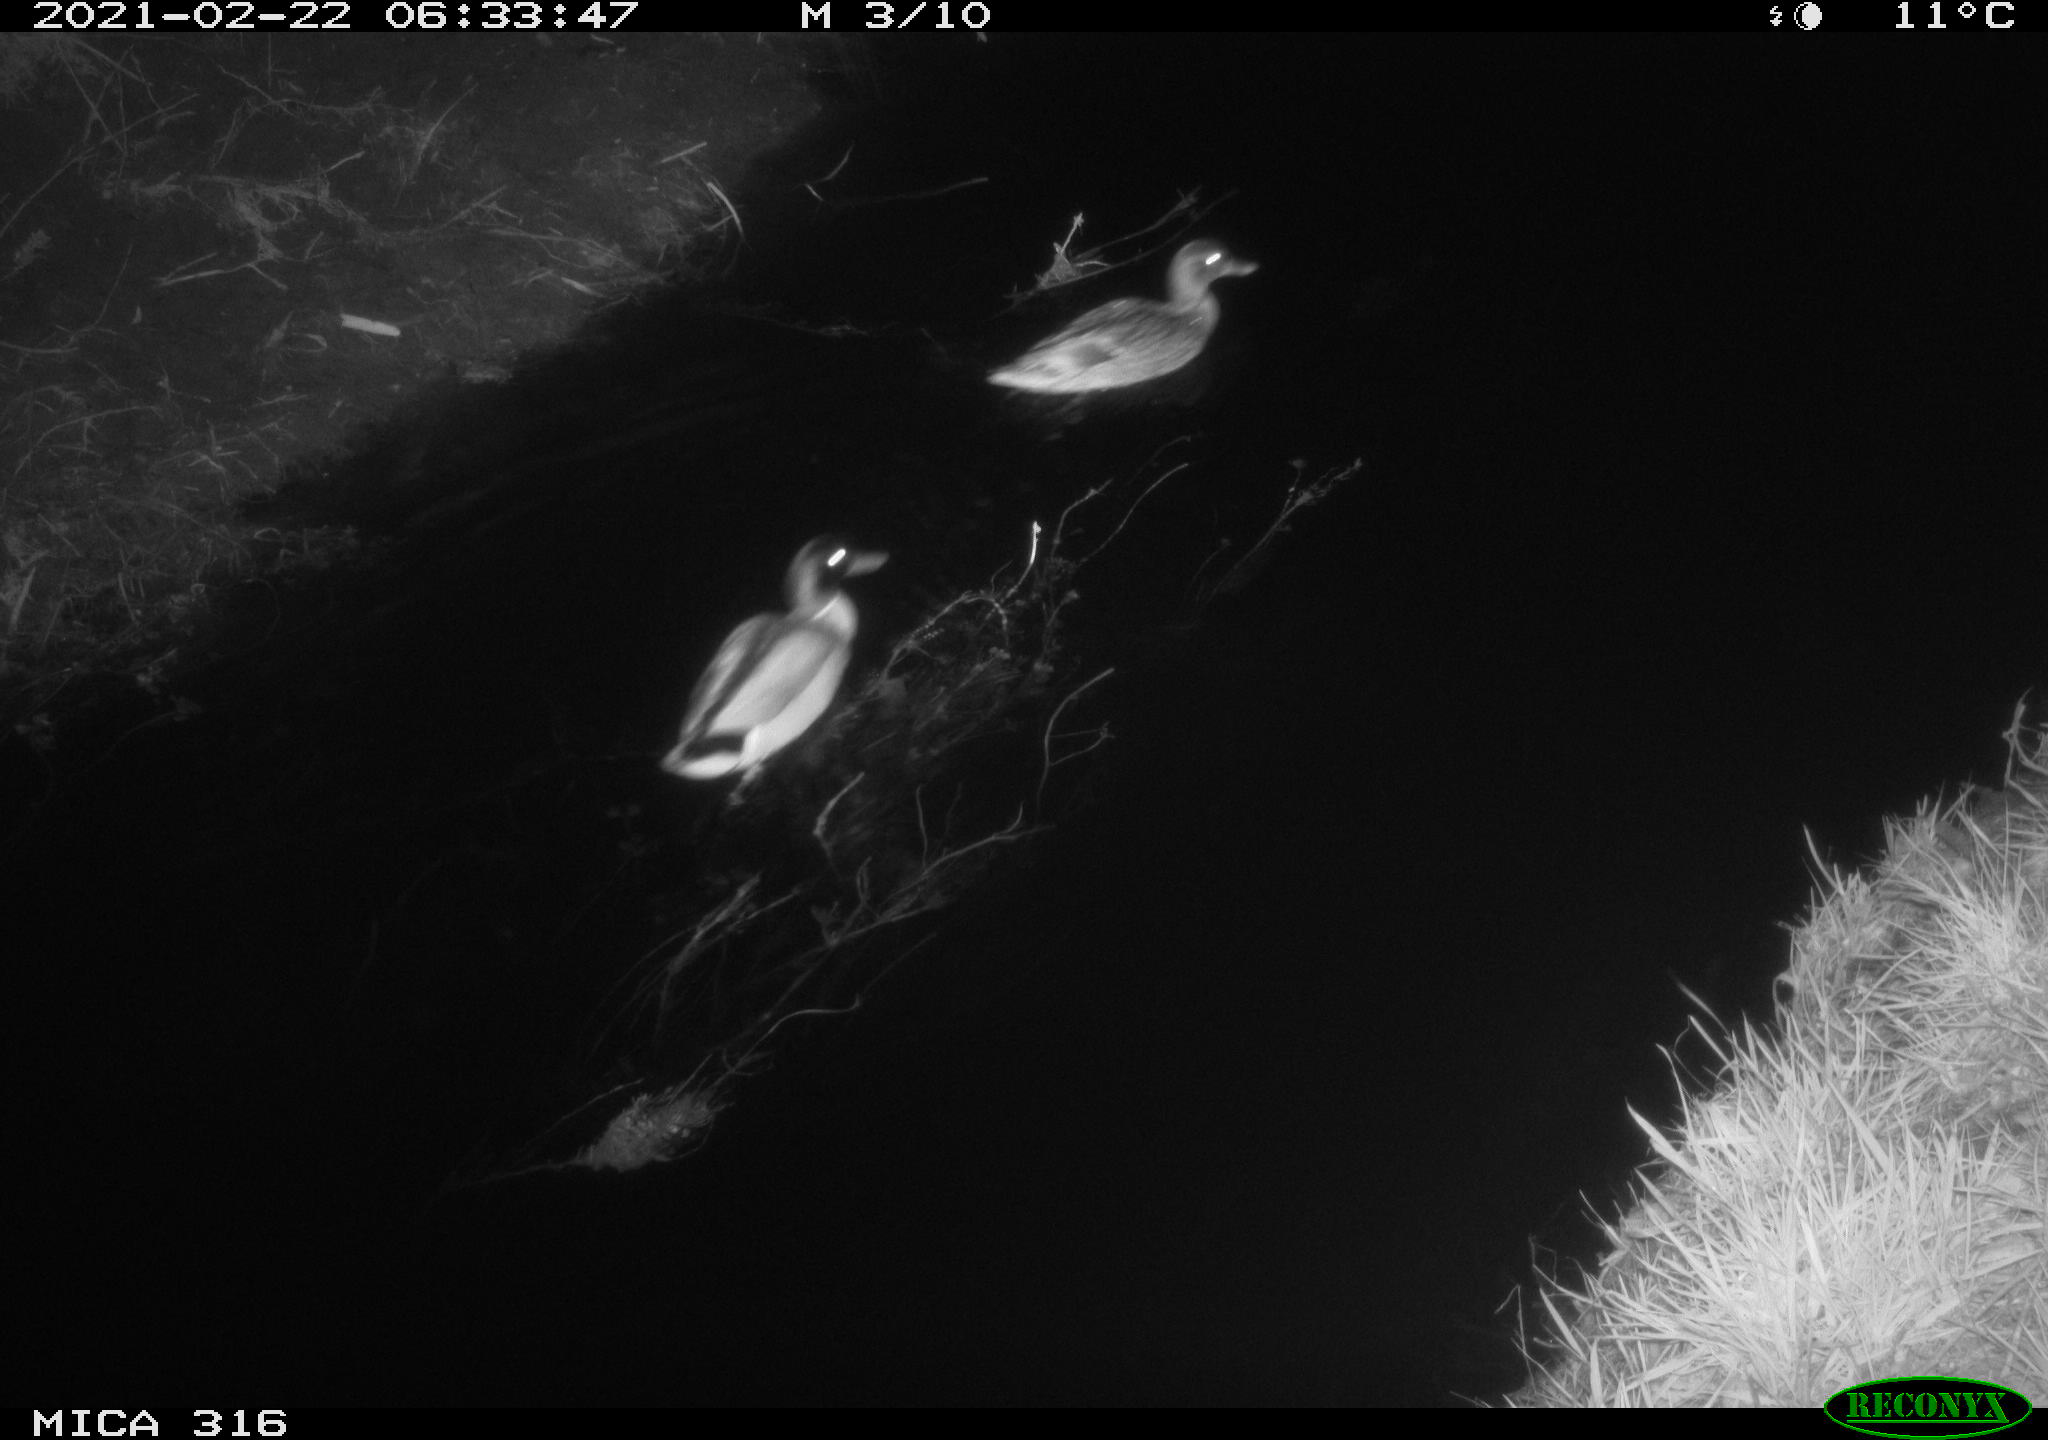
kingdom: Animalia
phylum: Chordata
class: Aves
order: Anseriformes
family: Anatidae
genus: Anas
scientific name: Anas platyrhynchos
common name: Mallard
